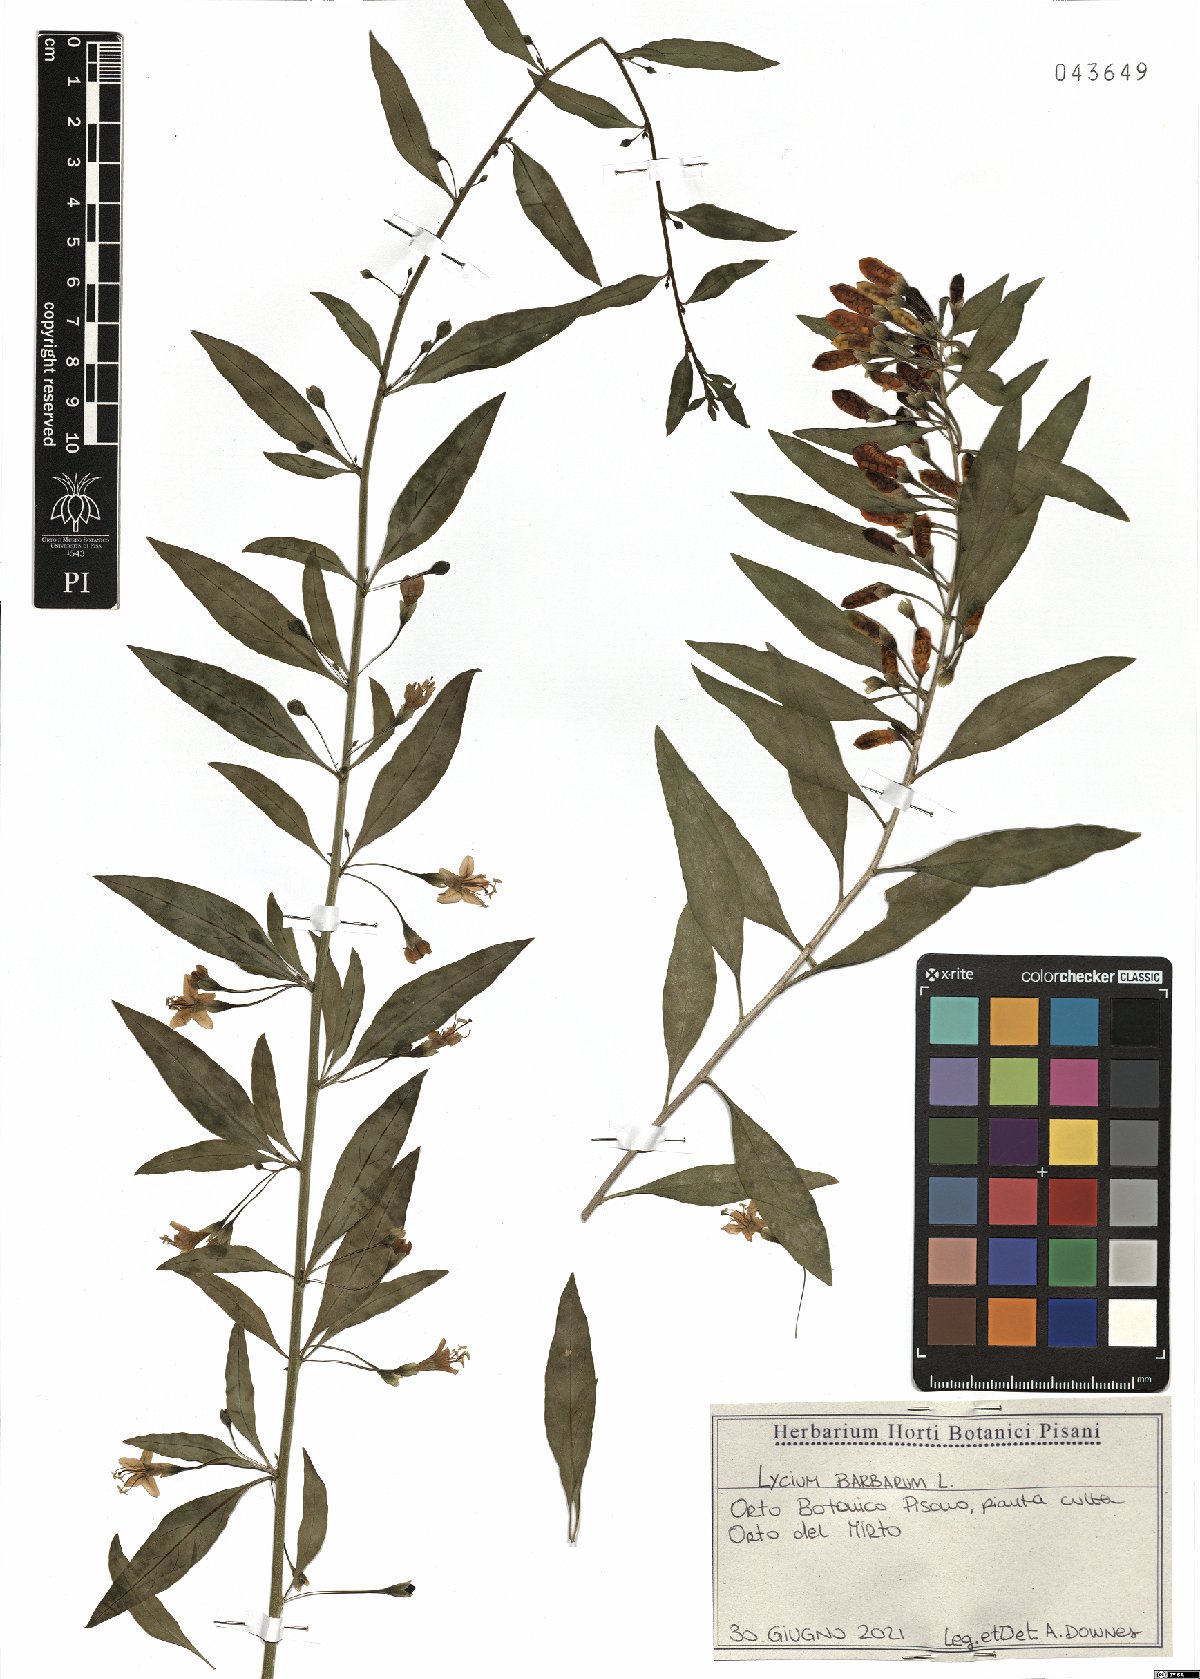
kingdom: Plantae
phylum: Tracheophyta
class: Magnoliopsida
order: Solanales
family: Solanaceae
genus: Lycium
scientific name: Lycium barbarum
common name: Duke of argyll's teaplant
